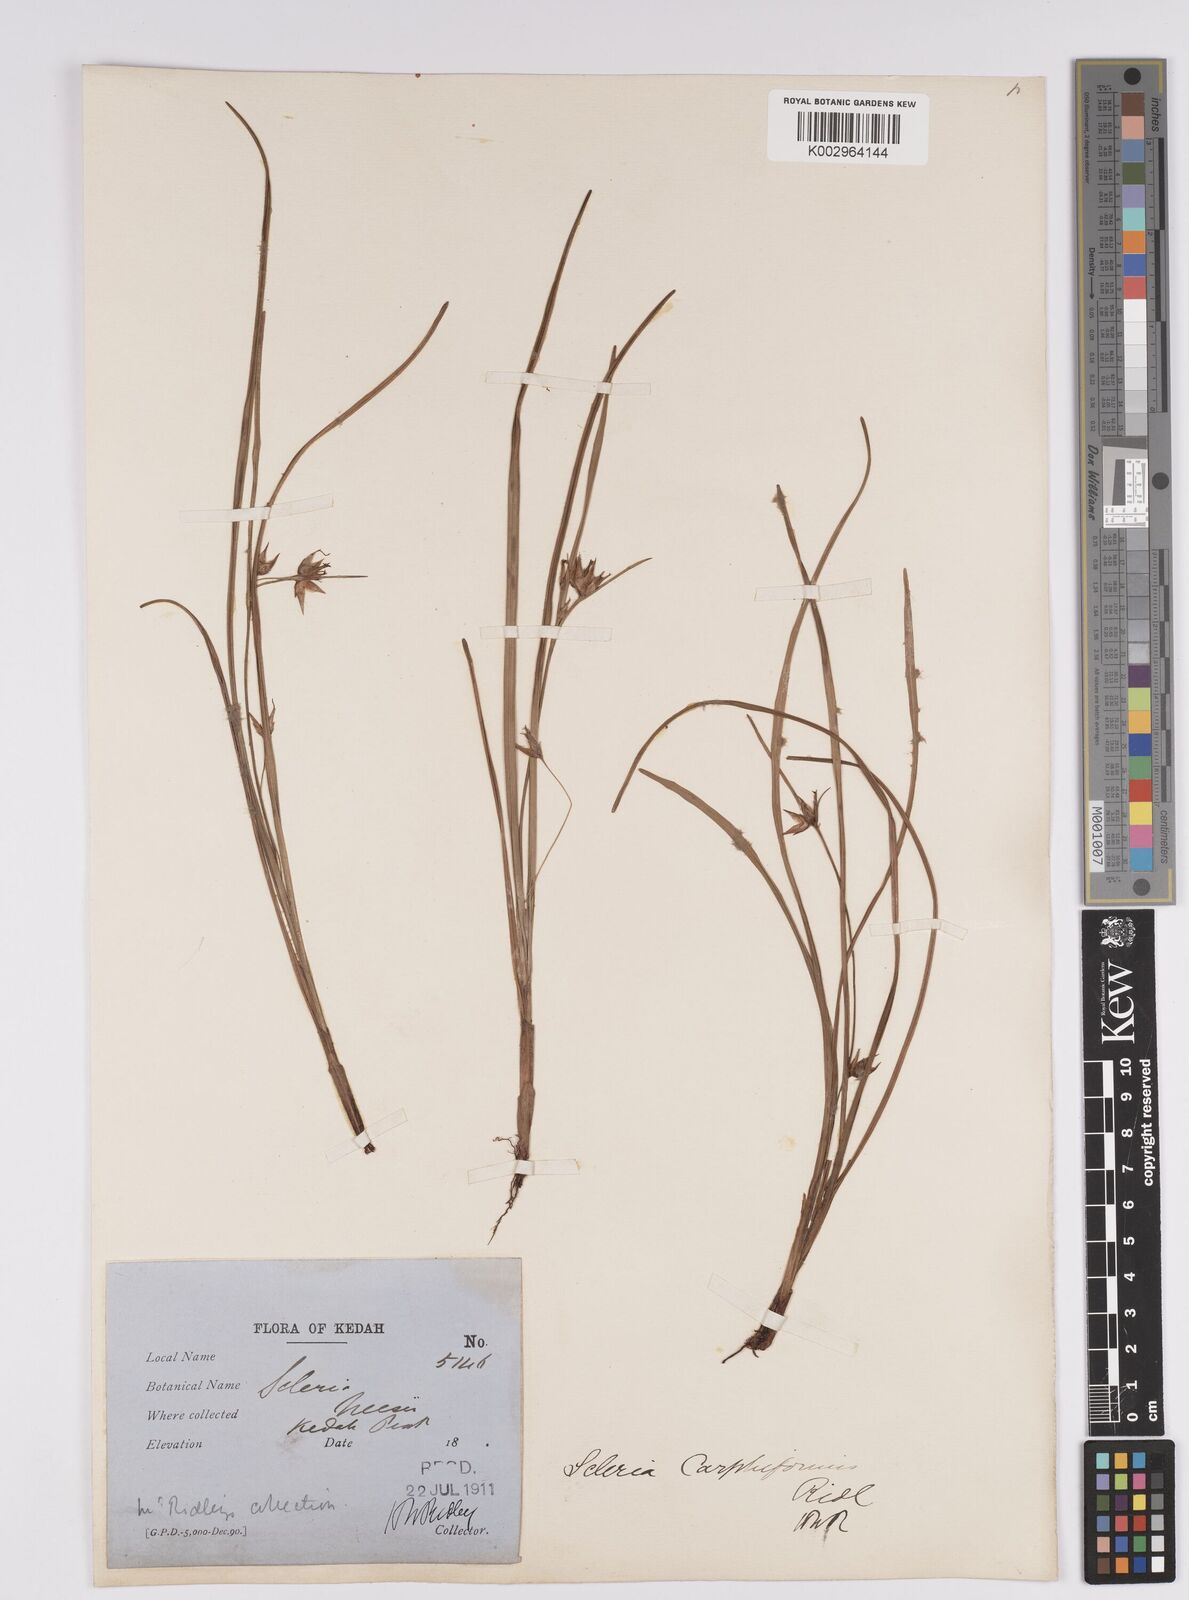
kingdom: Plantae
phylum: Tracheophyta
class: Liliopsida
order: Poales
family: Cyperaceae
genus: Scleria
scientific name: Scleria carphiformis
